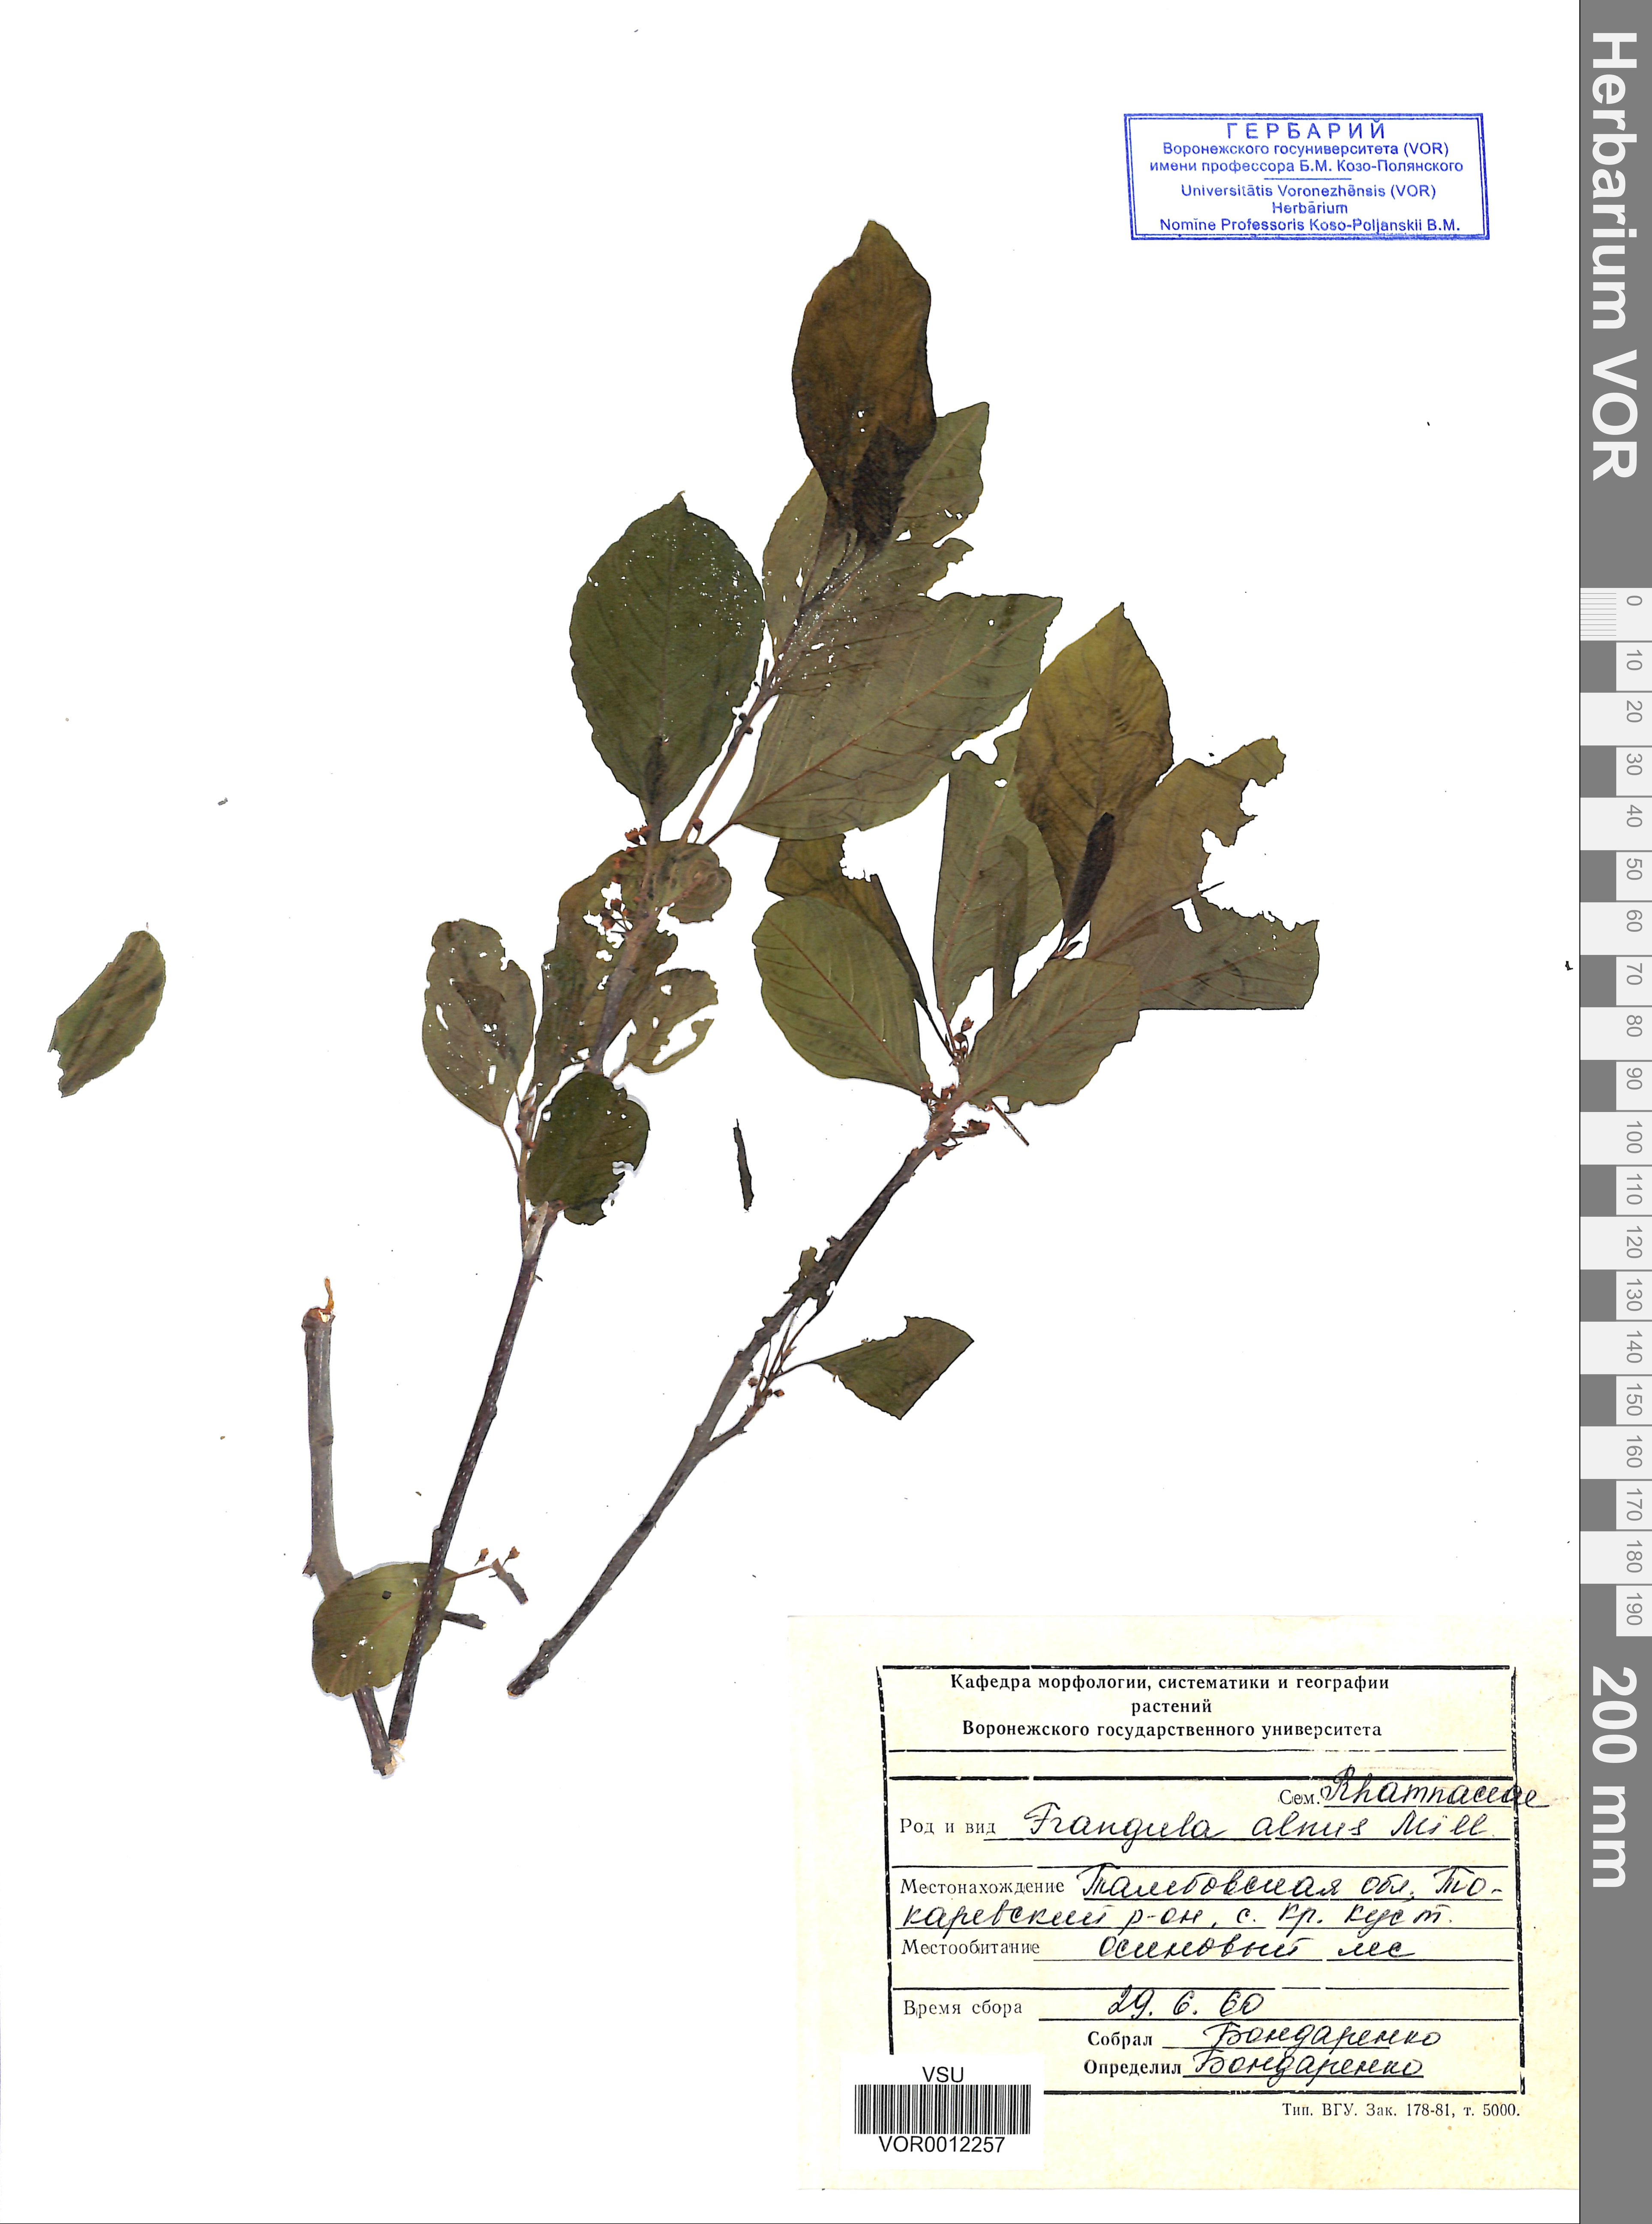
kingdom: Plantae
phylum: Tracheophyta
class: Magnoliopsida
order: Rosales
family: Rhamnaceae
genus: Frangula
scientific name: Frangula alnus
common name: Alder buckthorn
